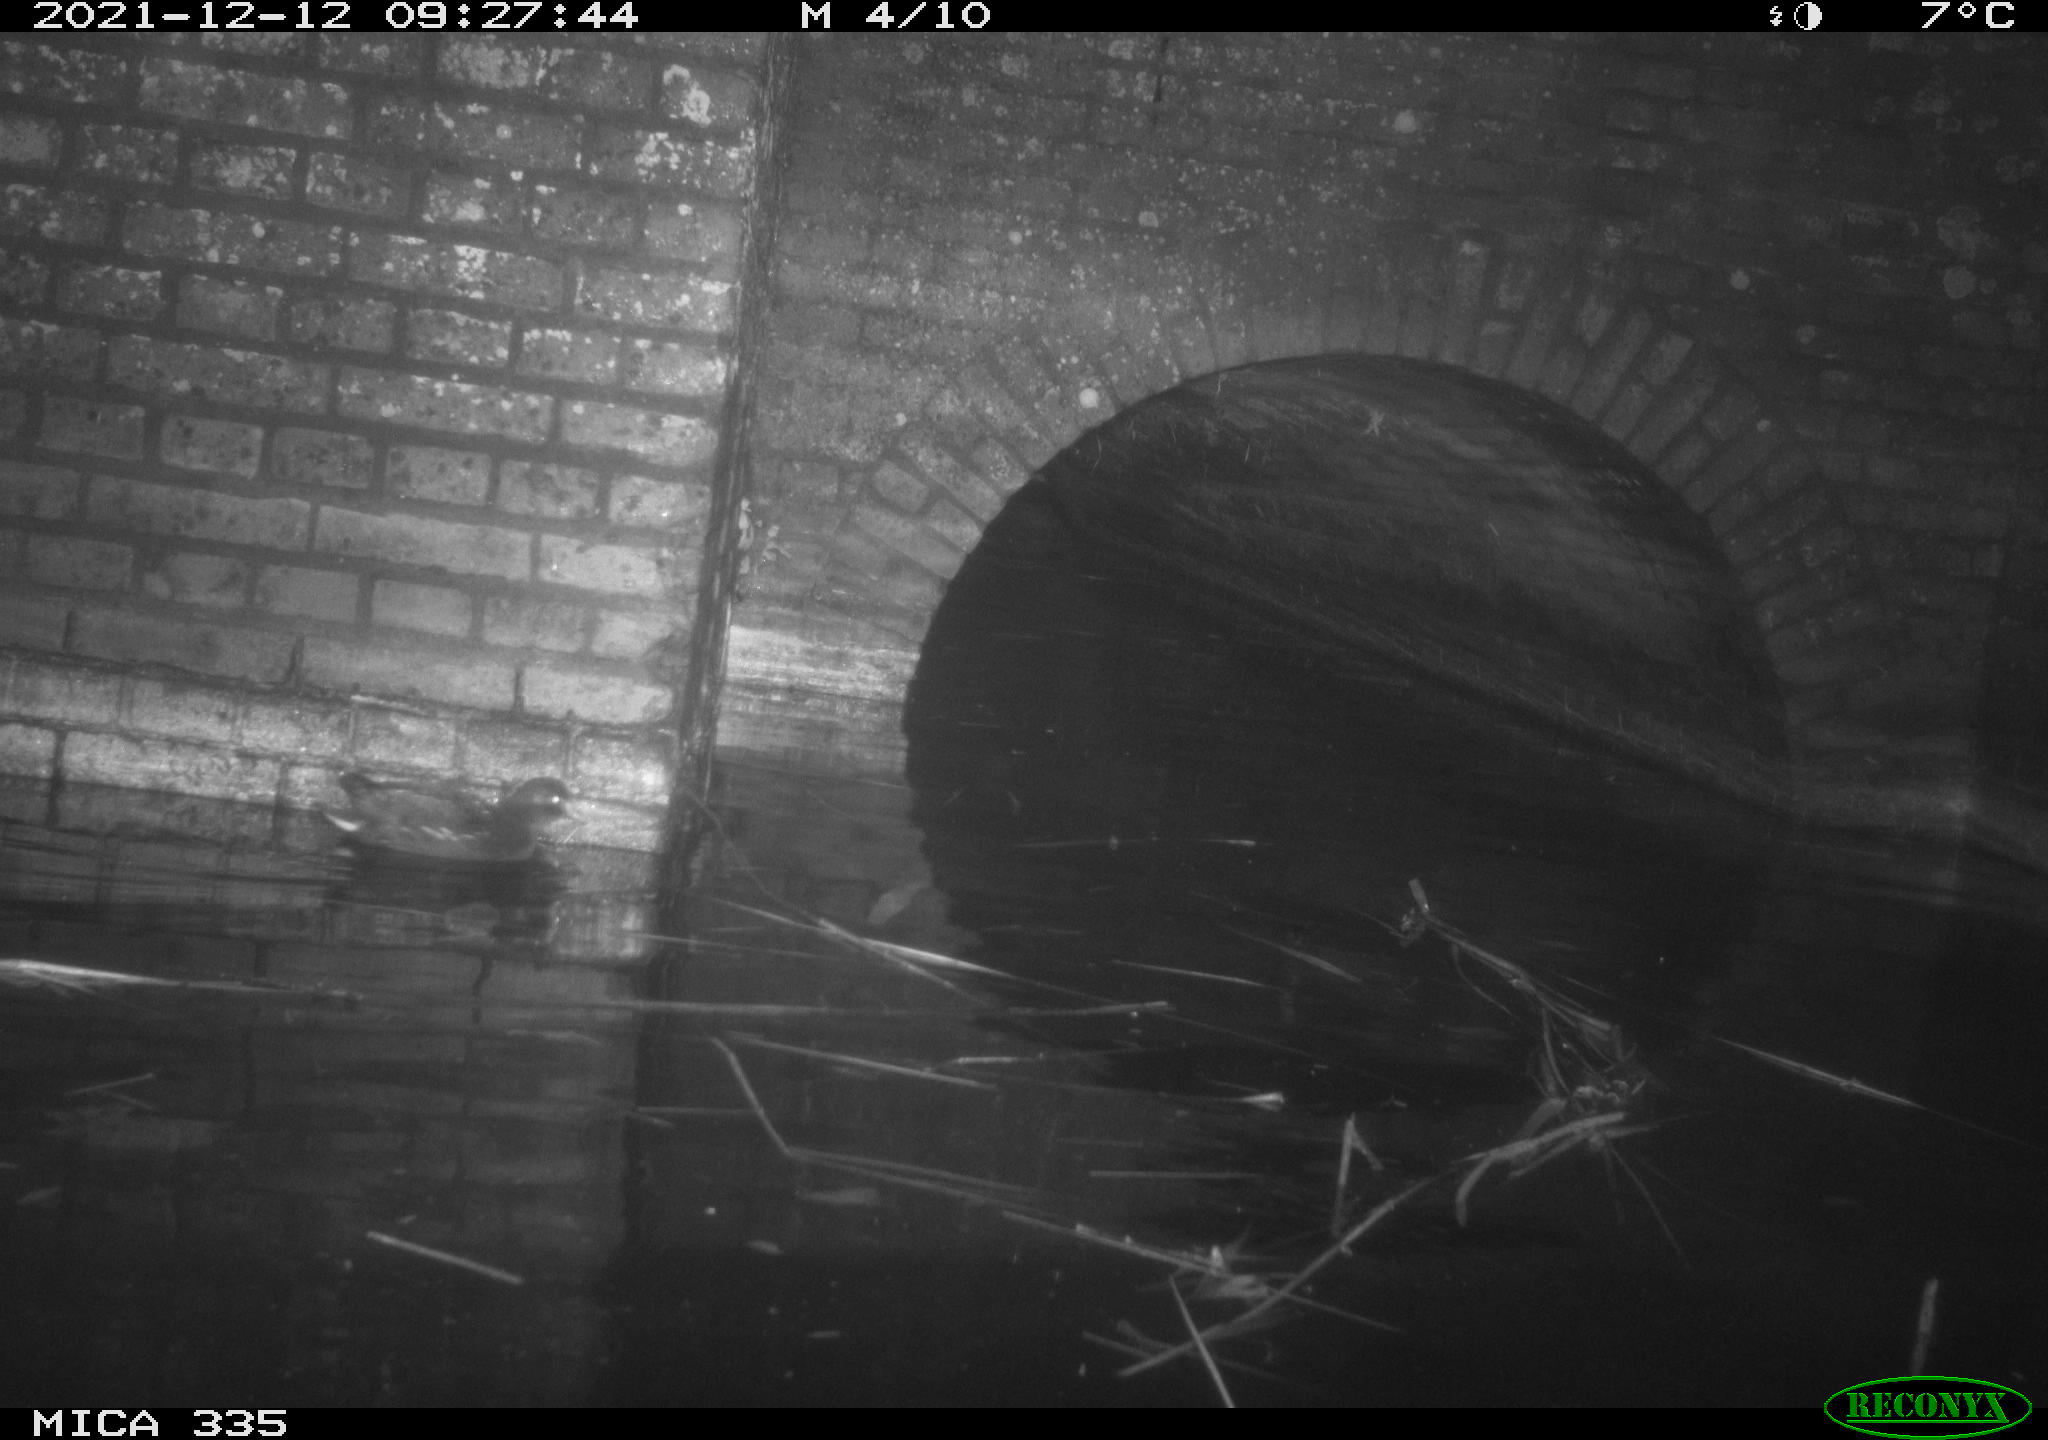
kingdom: Animalia
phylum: Chordata
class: Aves
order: Gruiformes
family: Rallidae
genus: Gallinula
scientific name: Gallinula chloropus
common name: Common moorhen
